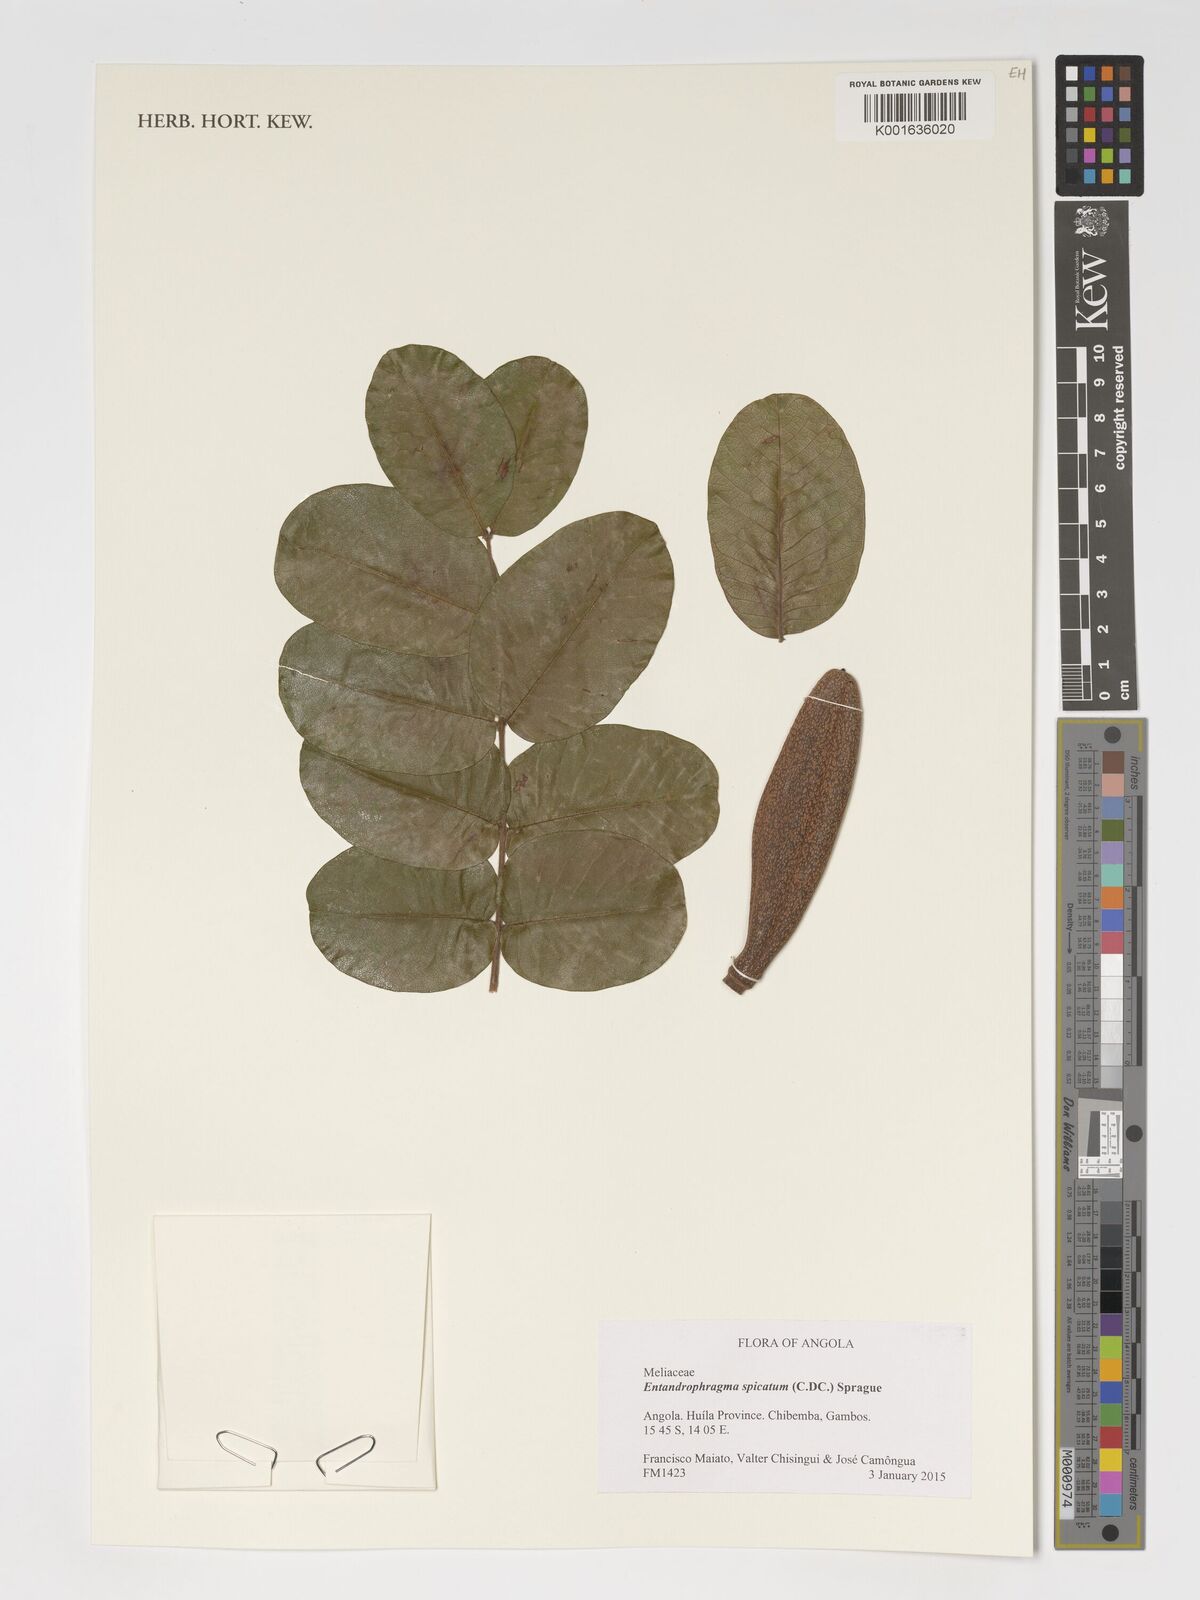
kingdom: Plantae
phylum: Tracheophyta
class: Magnoliopsida
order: Sapindales
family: Meliaceae
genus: Entandrophragma
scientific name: Entandrophragma spicatum
